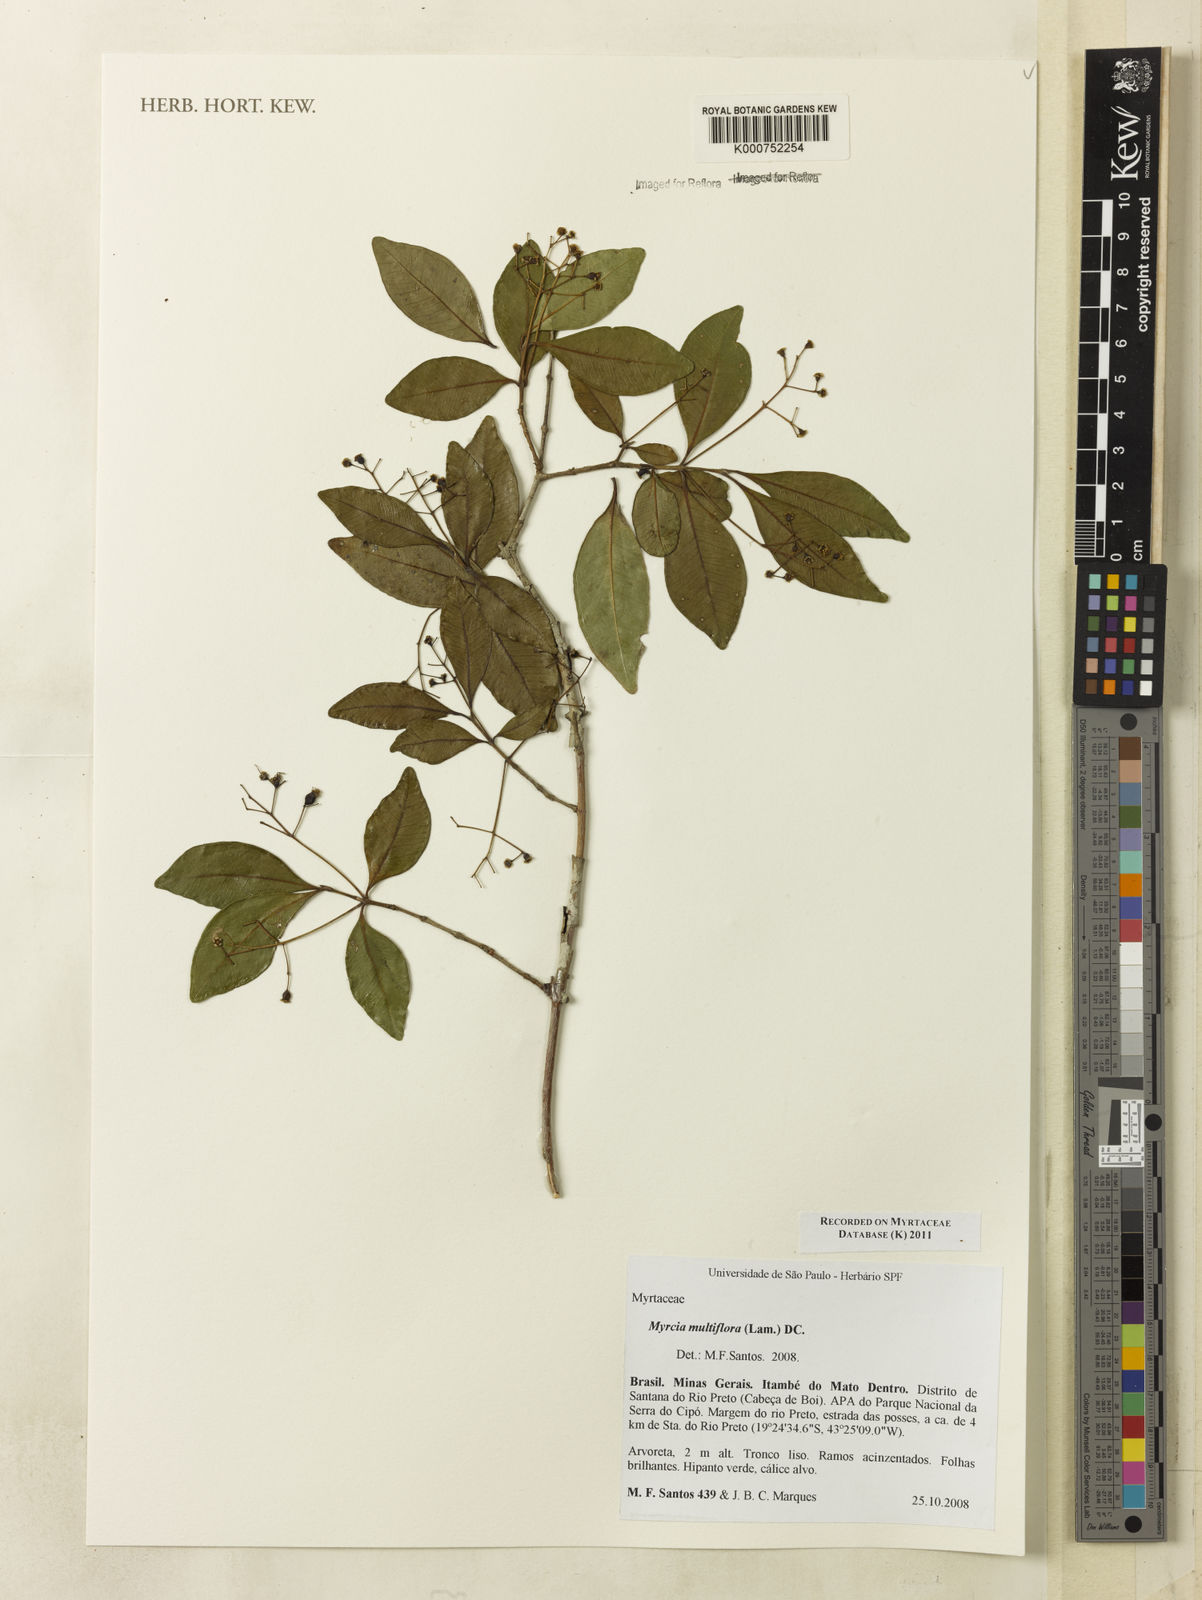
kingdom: Plantae
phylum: Tracheophyta
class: Magnoliopsida
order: Myrtales
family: Myrtaceae
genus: Myrcia
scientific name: Myrcia multiflora
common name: Pedra hume
